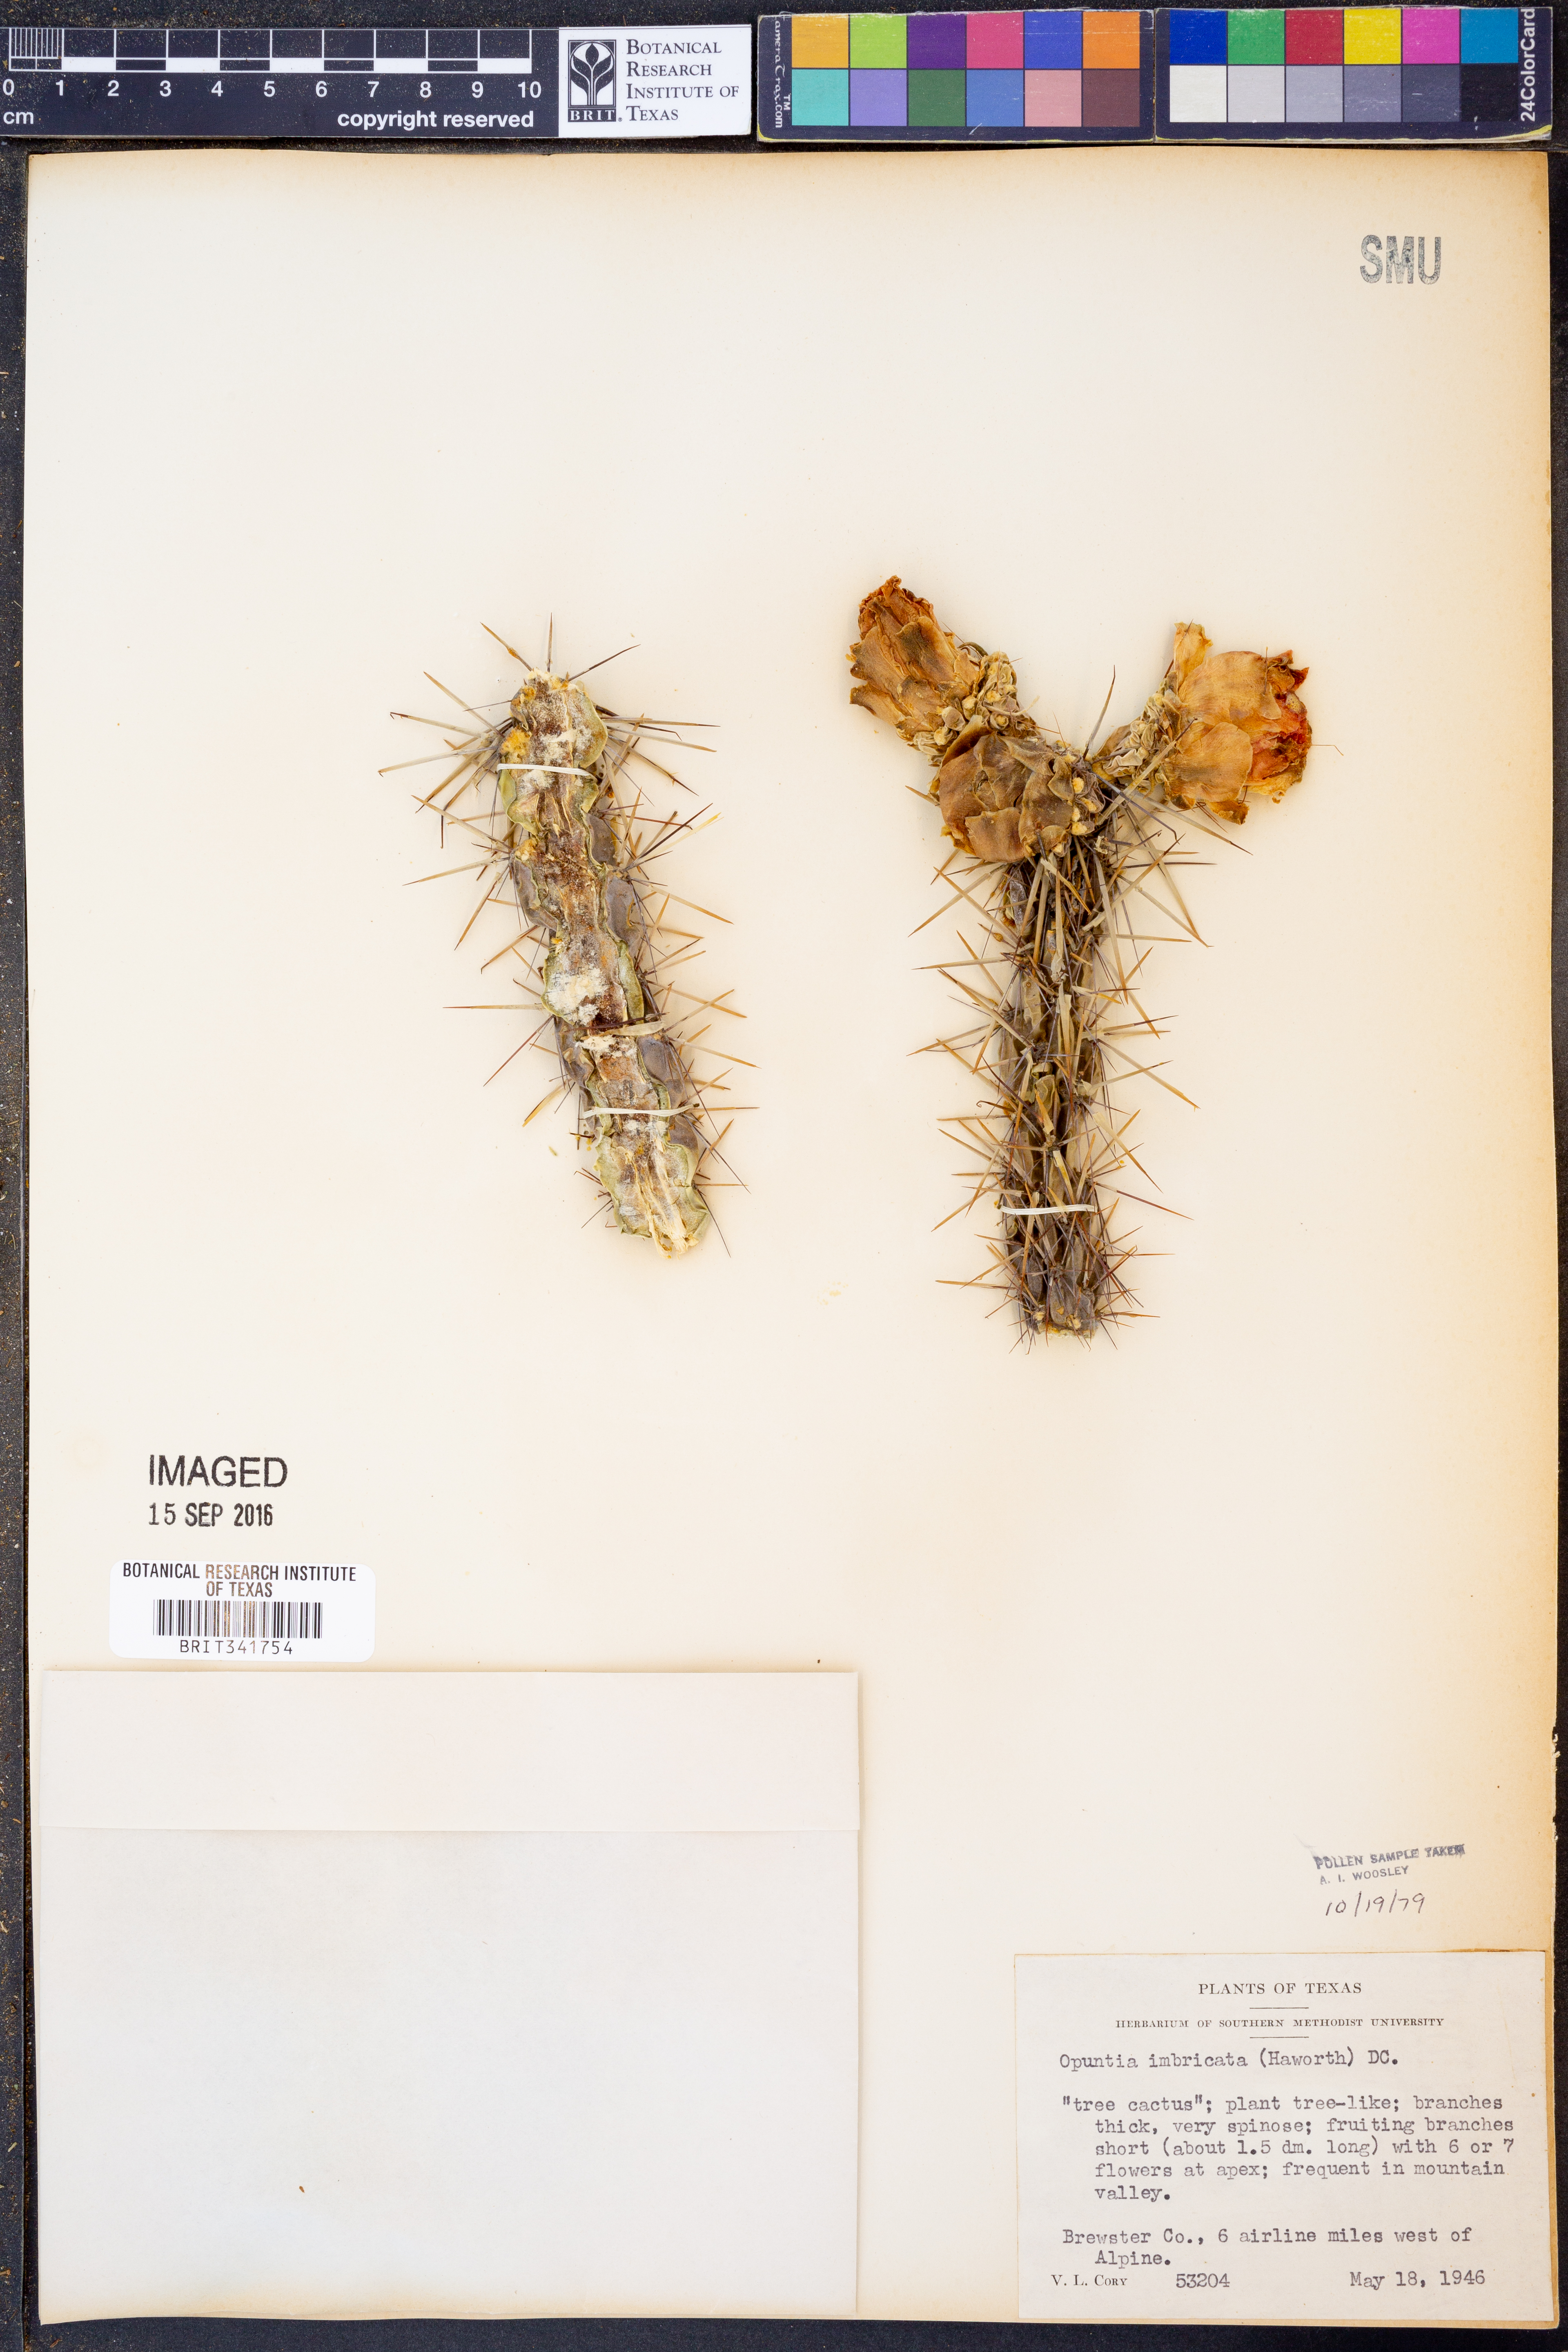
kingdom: Plantae
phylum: Tracheophyta
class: Magnoliopsida
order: Caryophyllales
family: Cactaceae
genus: Cylindropuntia
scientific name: Cylindropuntia imbricata
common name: Candelabrum cactus
